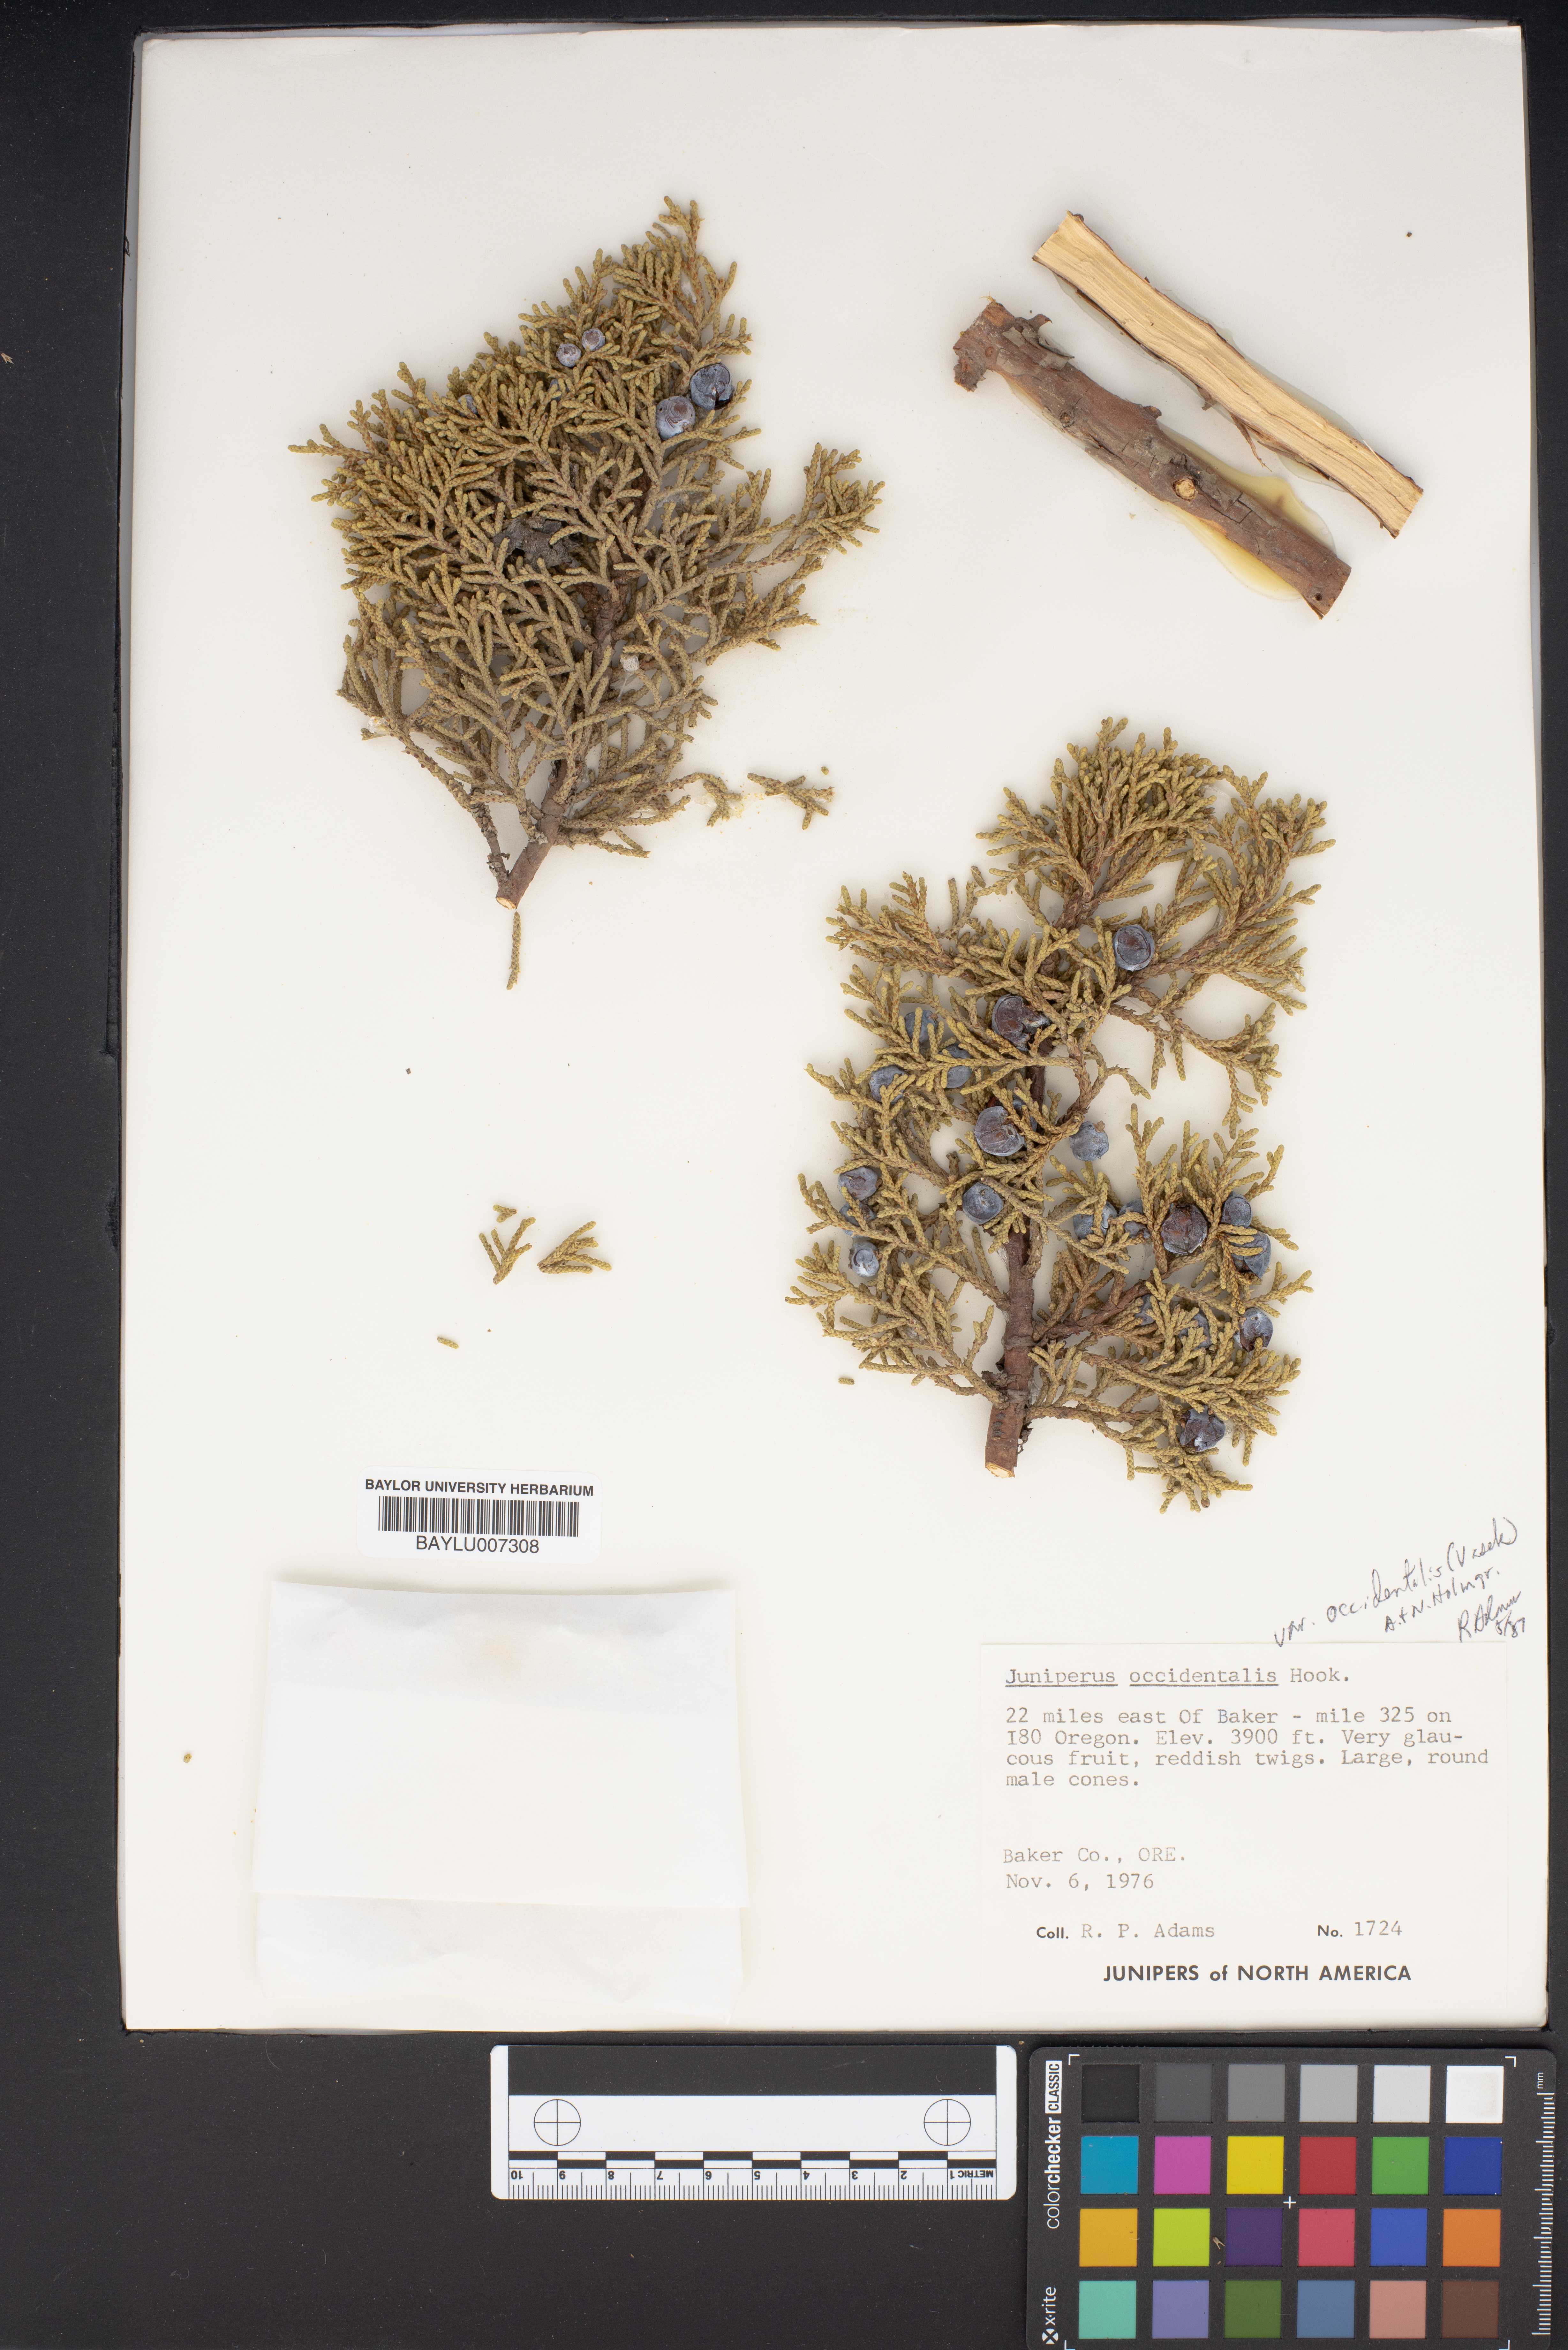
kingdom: Plantae
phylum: Tracheophyta
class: Pinopsida
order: Pinales
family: Cupressaceae
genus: Juniperus
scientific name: Juniperus occidentalis
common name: Western juniper
